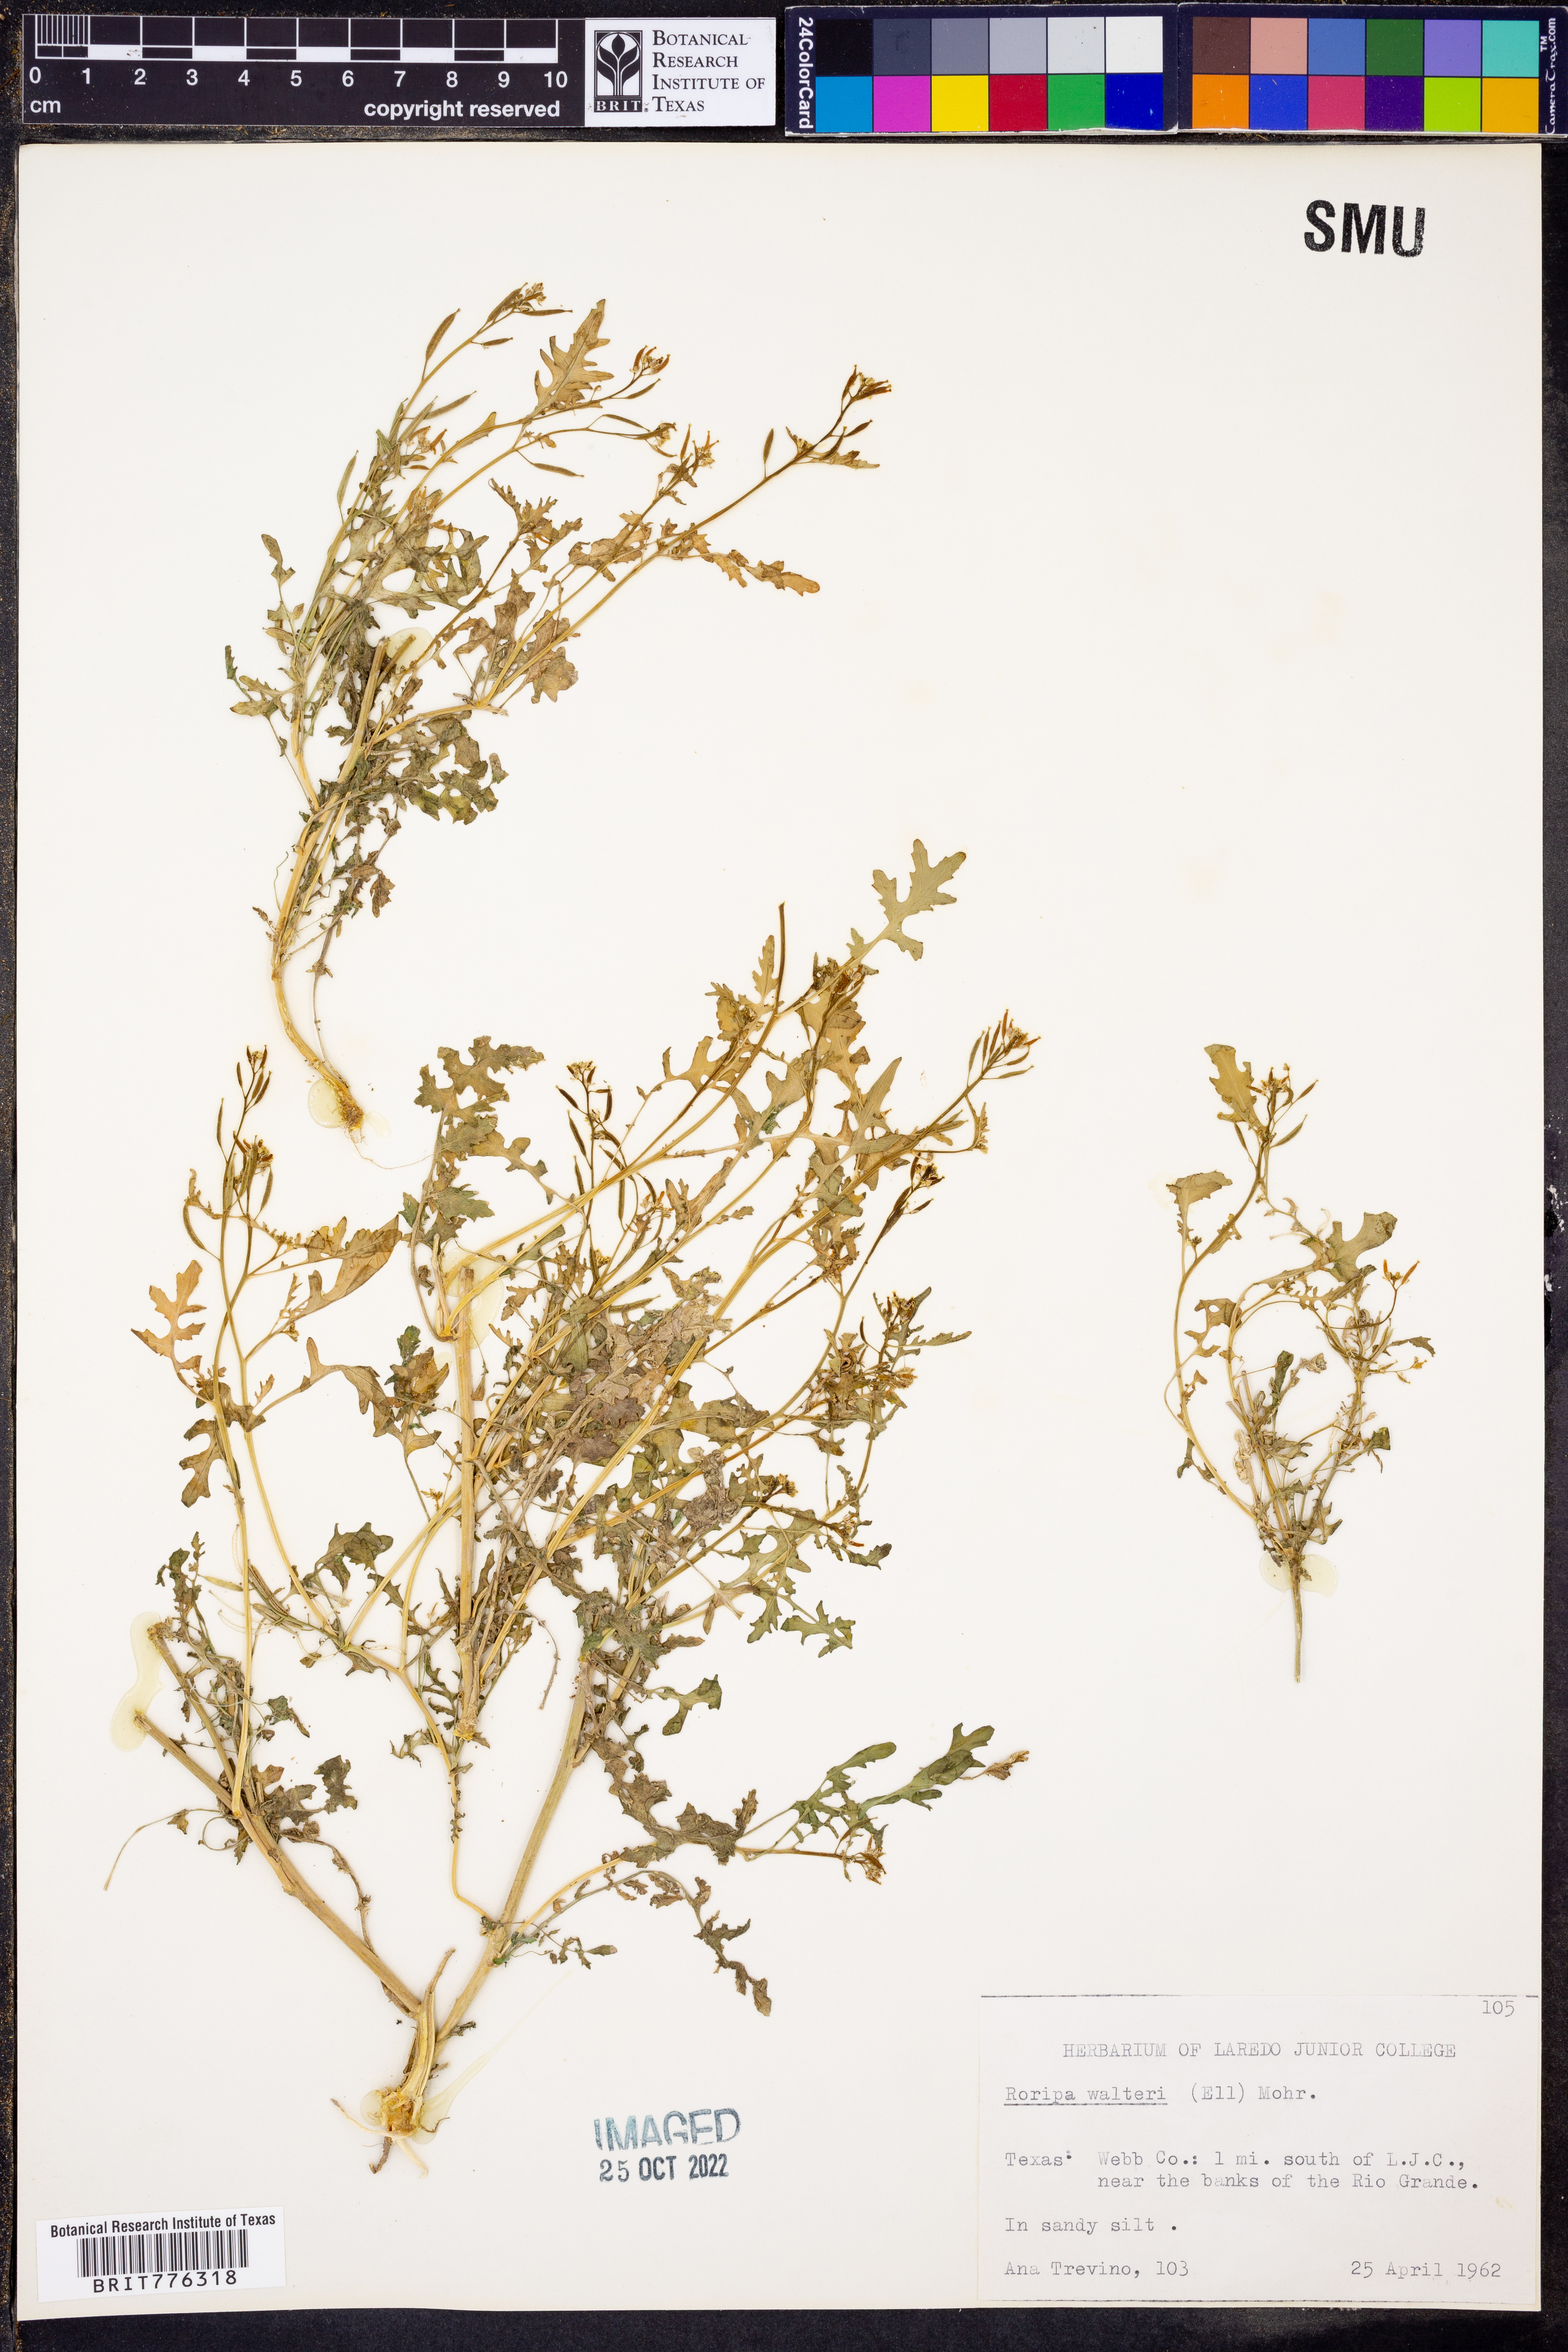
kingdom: Plantae
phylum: Tracheophyta
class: Magnoliopsida
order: Brassicales
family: Brassicaceae
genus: Rorippa
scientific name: Rorippa teres
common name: Southern marsh yellowcress
